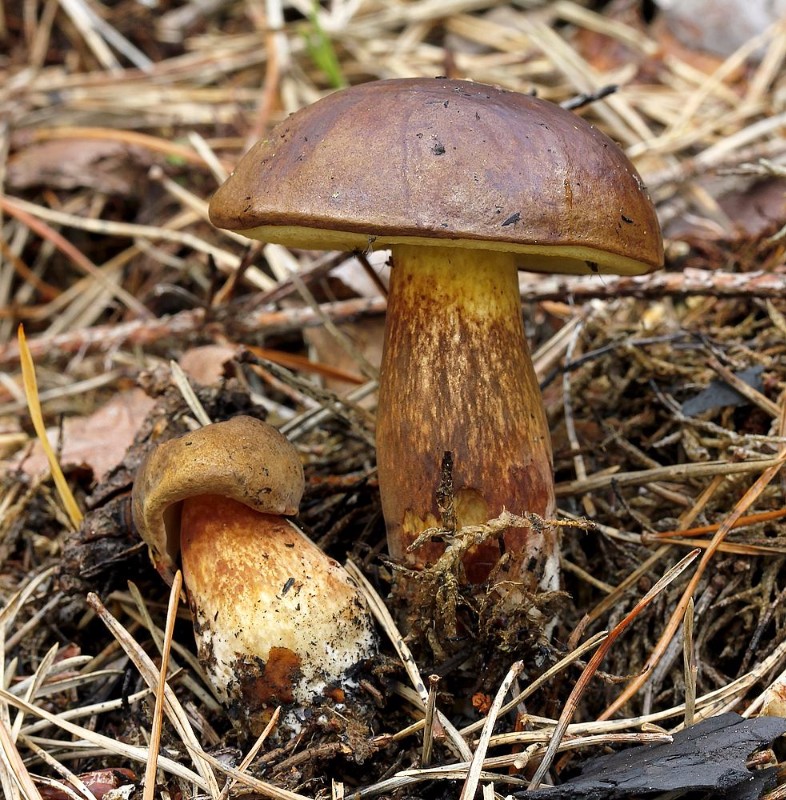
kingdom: Fungi
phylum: Basidiomycota
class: Agaricomycetes
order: Boletales
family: Boletaceae
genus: Imleria
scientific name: Imleria badia
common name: brunstokket rørhat
